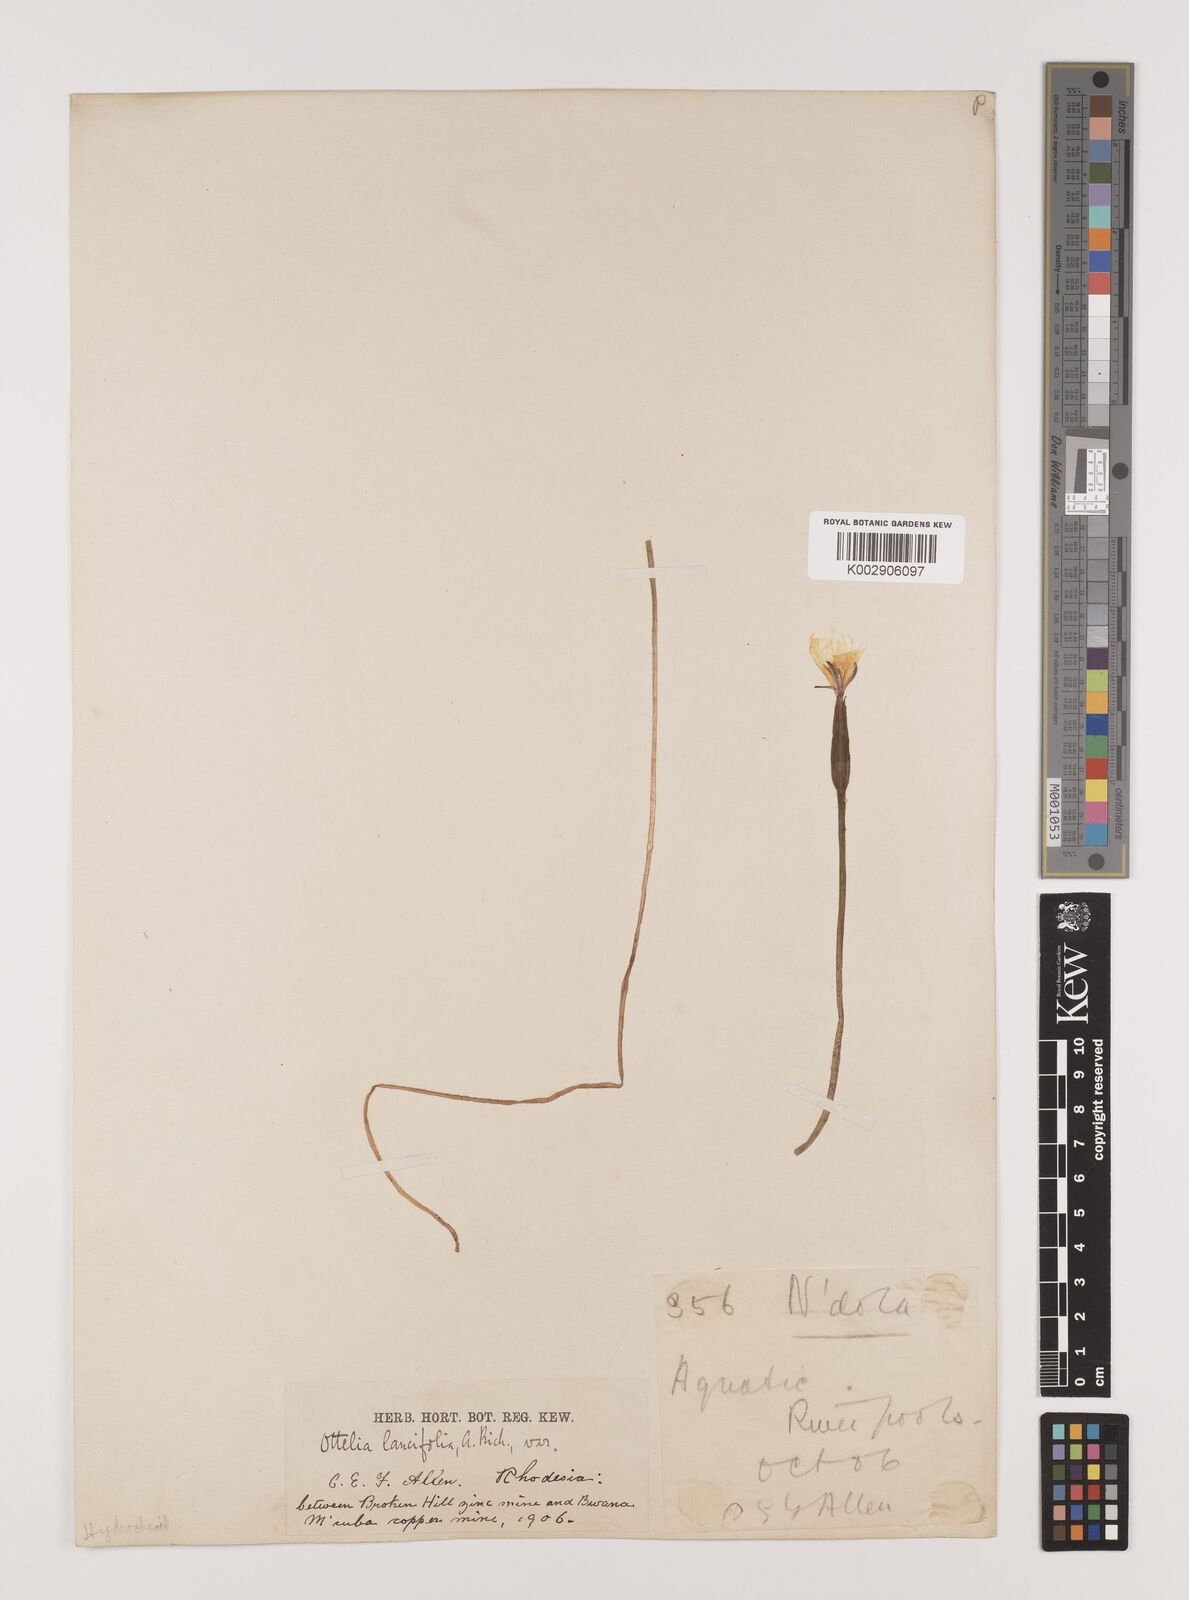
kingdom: Plantae
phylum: Tracheophyta
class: Liliopsida
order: Alismatales
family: Hydrocharitaceae
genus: Ottelia
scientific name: Ottelia ulvifolia
